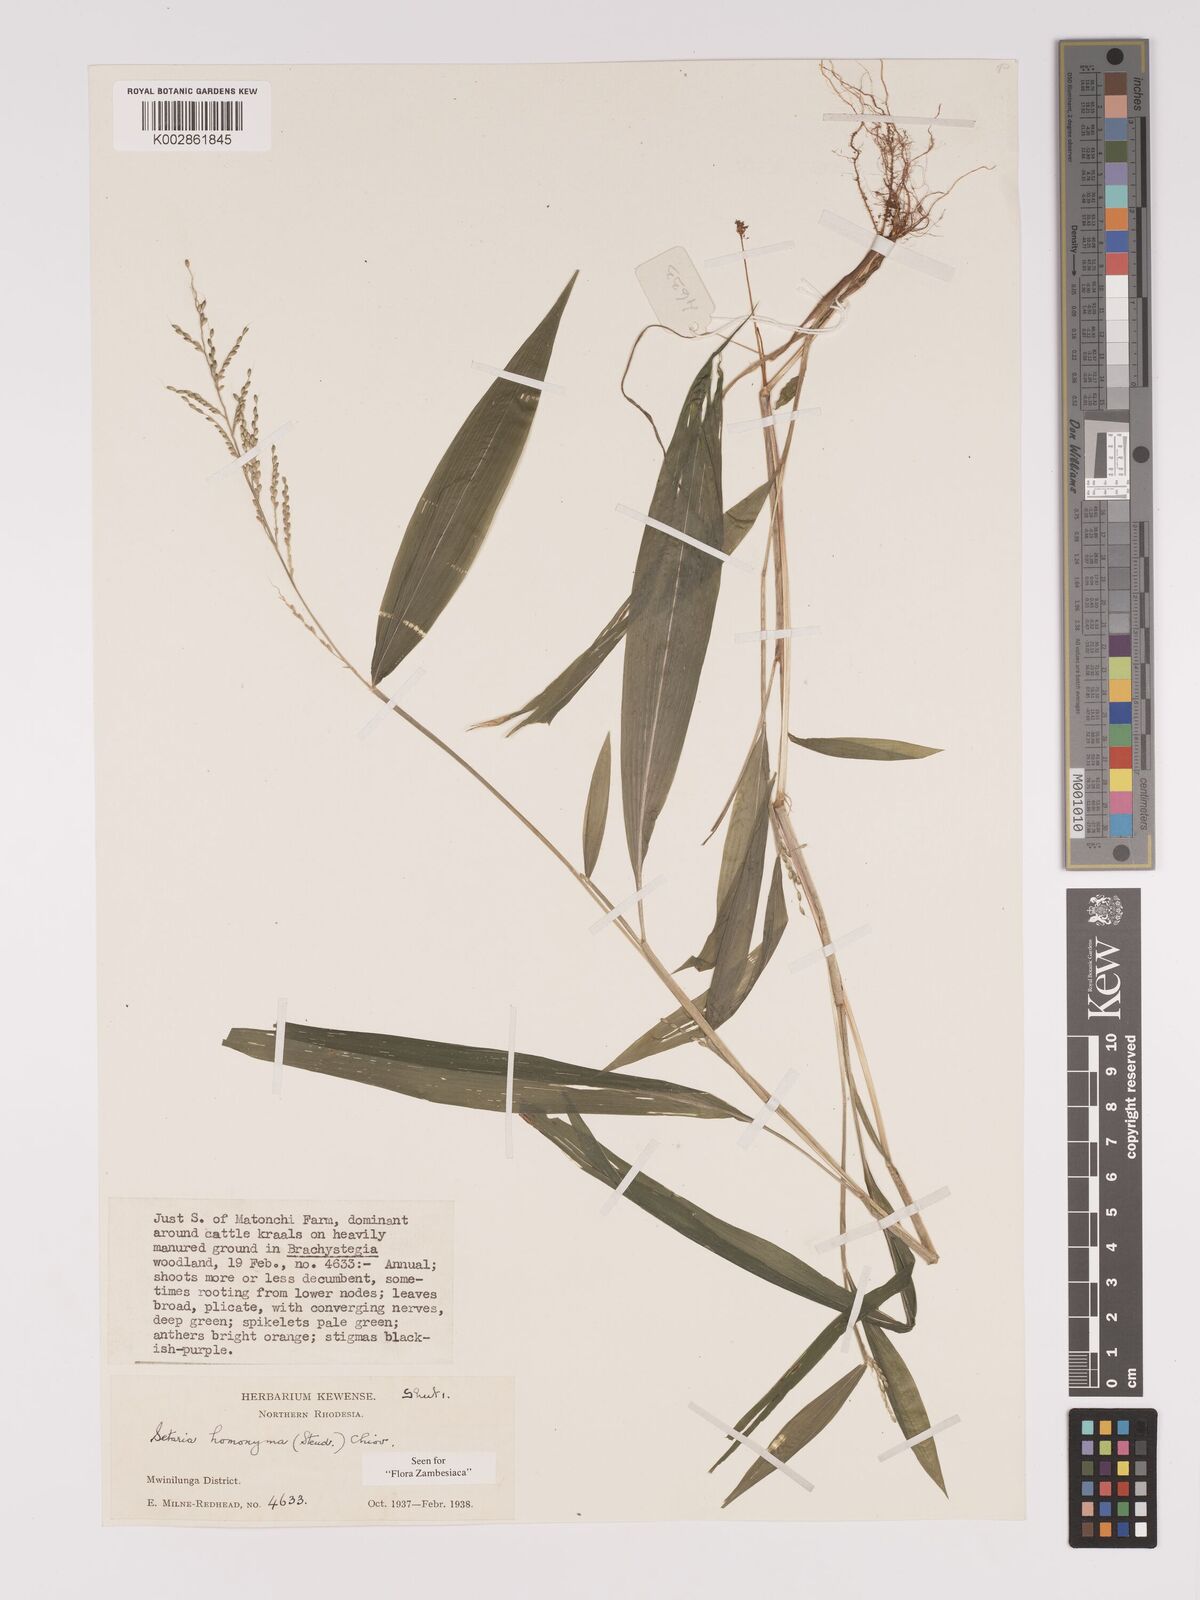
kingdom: Plantae
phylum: Tracheophyta
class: Liliopsida
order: Poales
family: Poaceae
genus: Setaria
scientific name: Setaria homonyma
